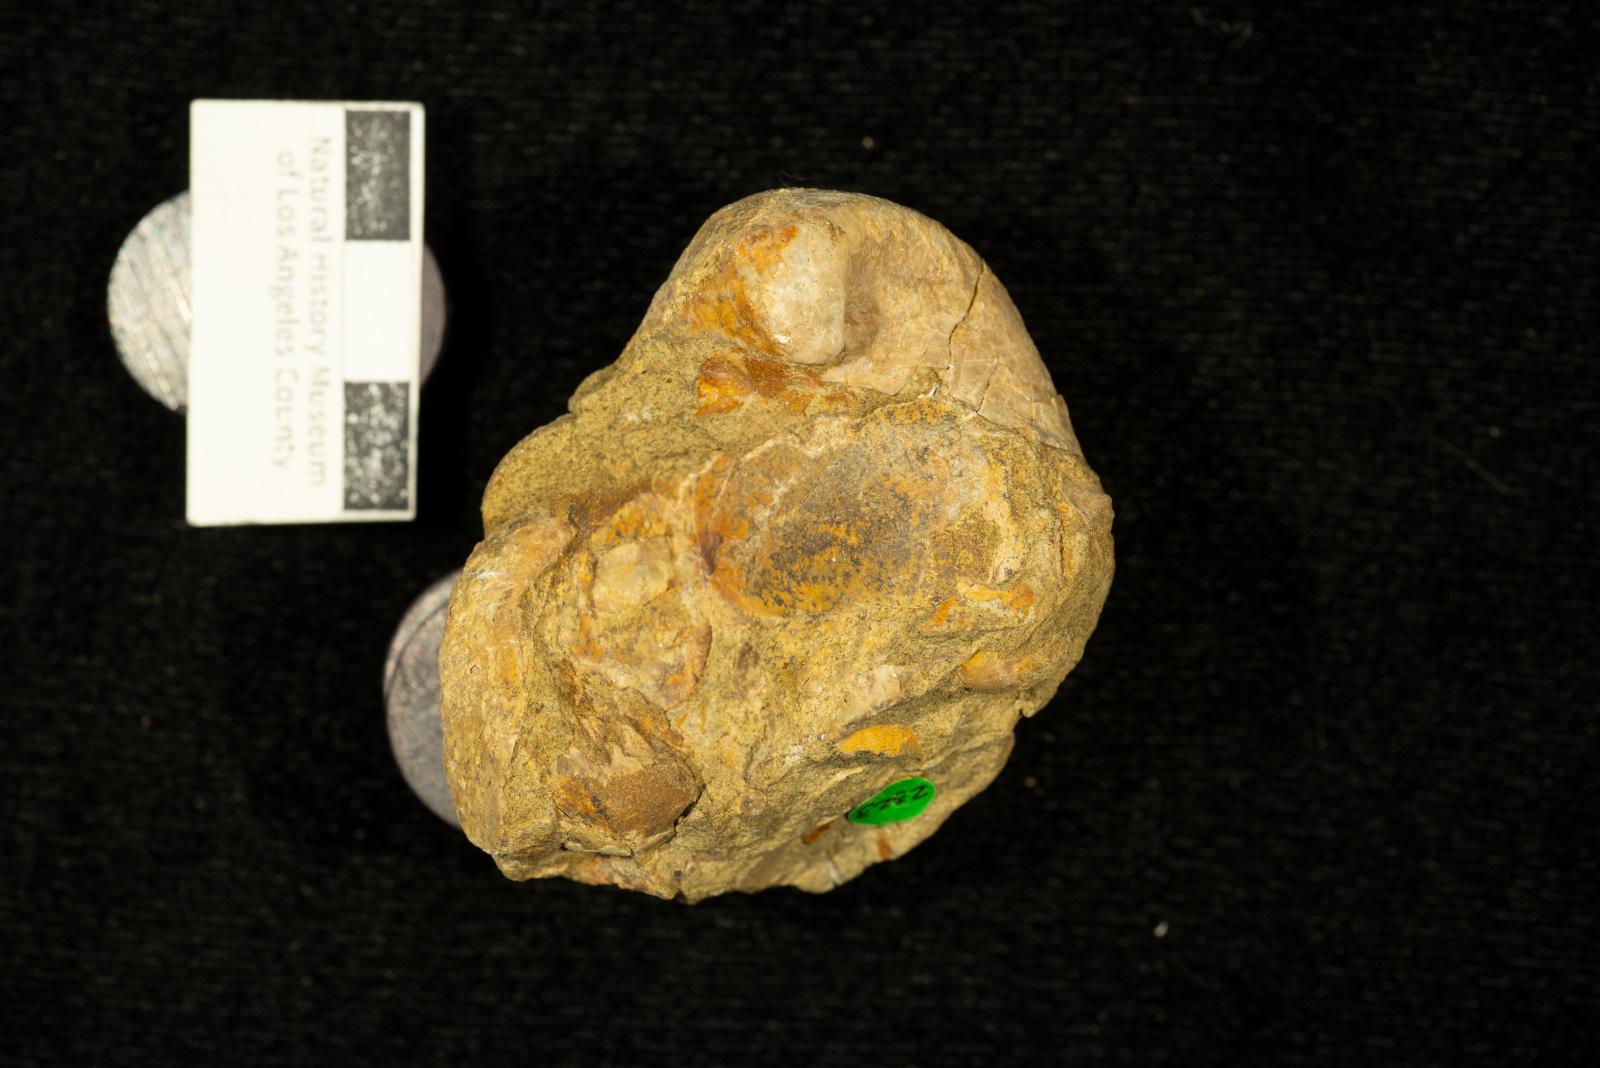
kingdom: Animalia
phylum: Mollusca
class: Bivalvia
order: Cardiida
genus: Ambocardia
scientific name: Ambocardia Isocardia delta
